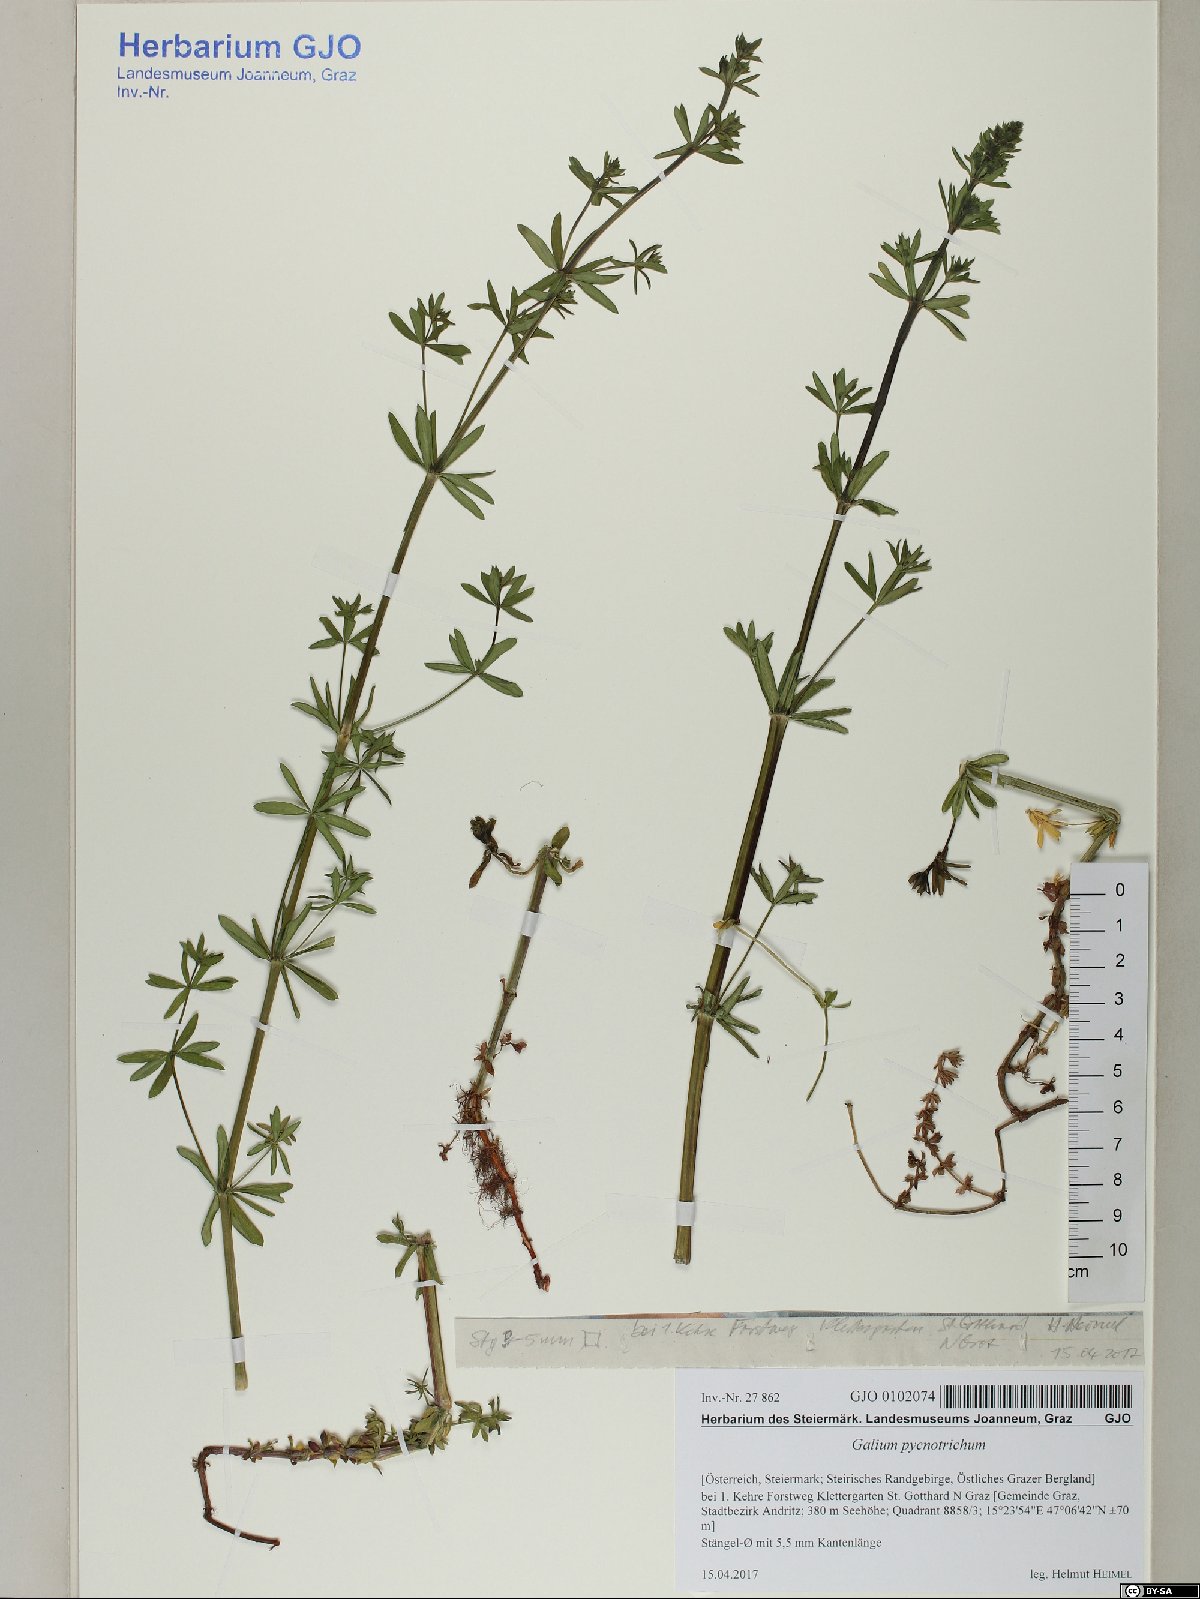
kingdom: Plantae
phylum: Tracheophyta
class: Magnoliopsida
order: Gentianales
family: Rubiaceae
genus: Galium
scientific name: Galium album
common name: White bedstraw
